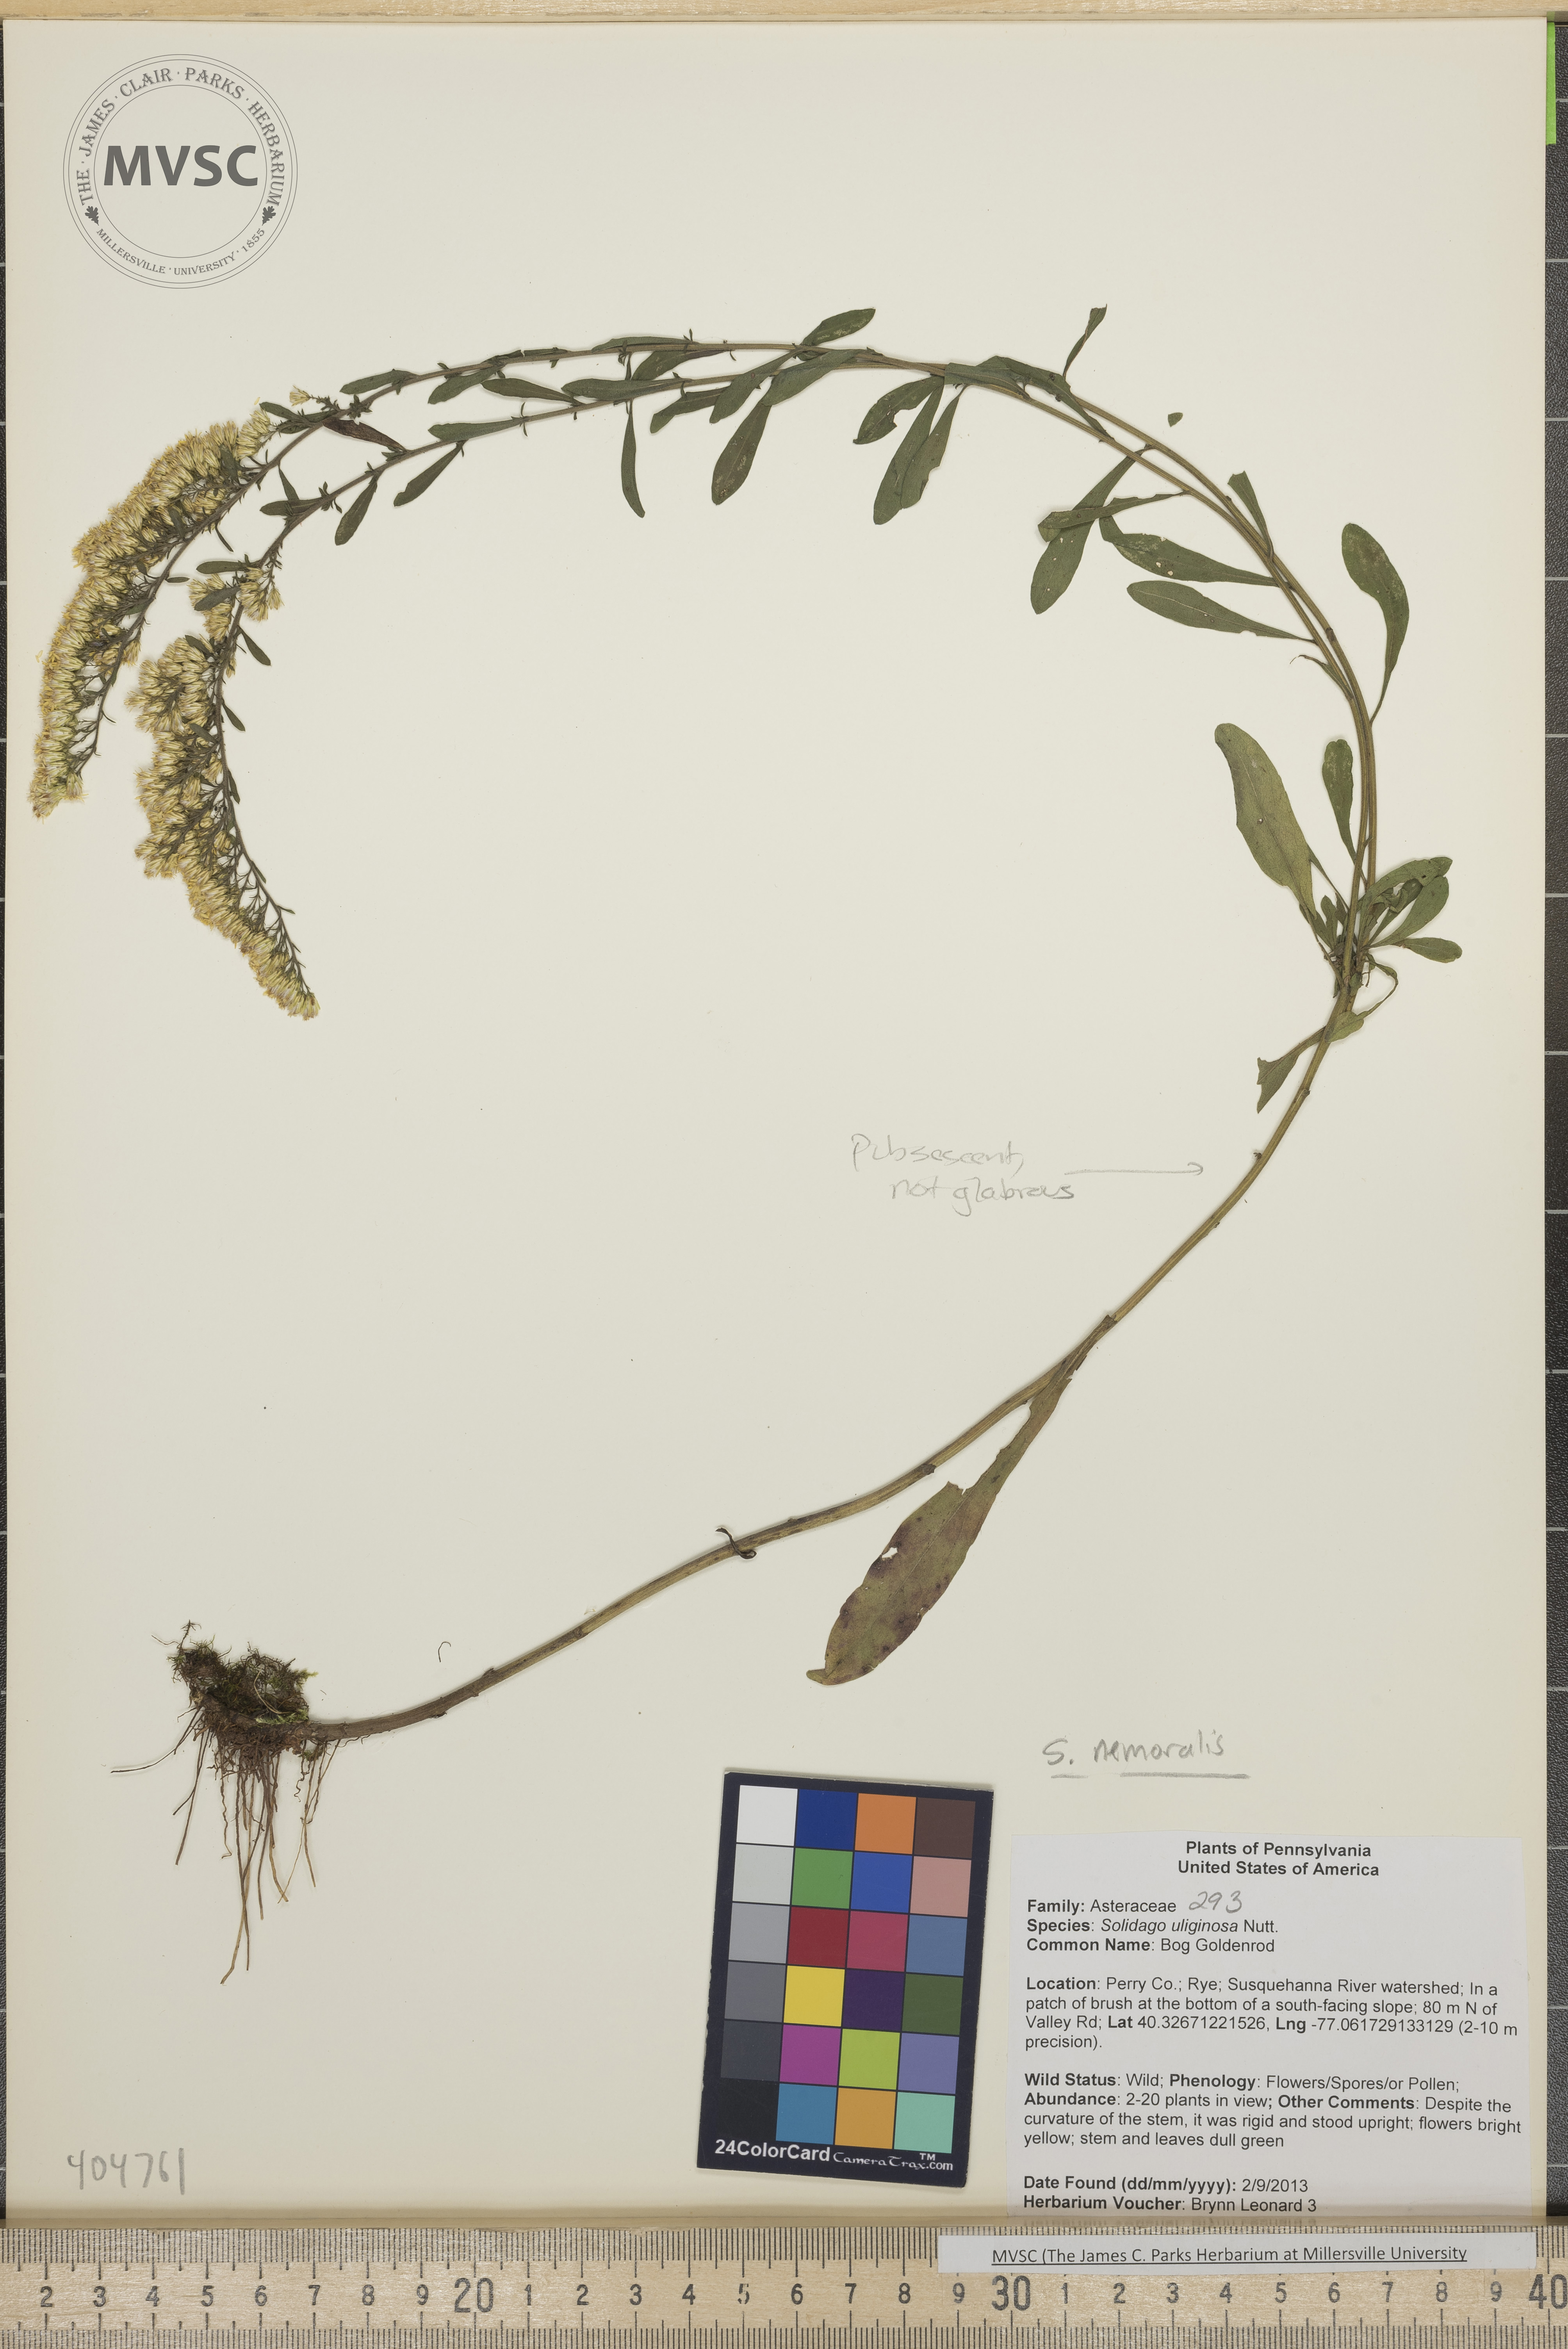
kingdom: Plantae
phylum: Tracheophyta
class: Magnoliopsida
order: Asterales
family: Asteraceae
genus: Solidago
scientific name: Solidago nemoralis
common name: Gray Goldenrod
